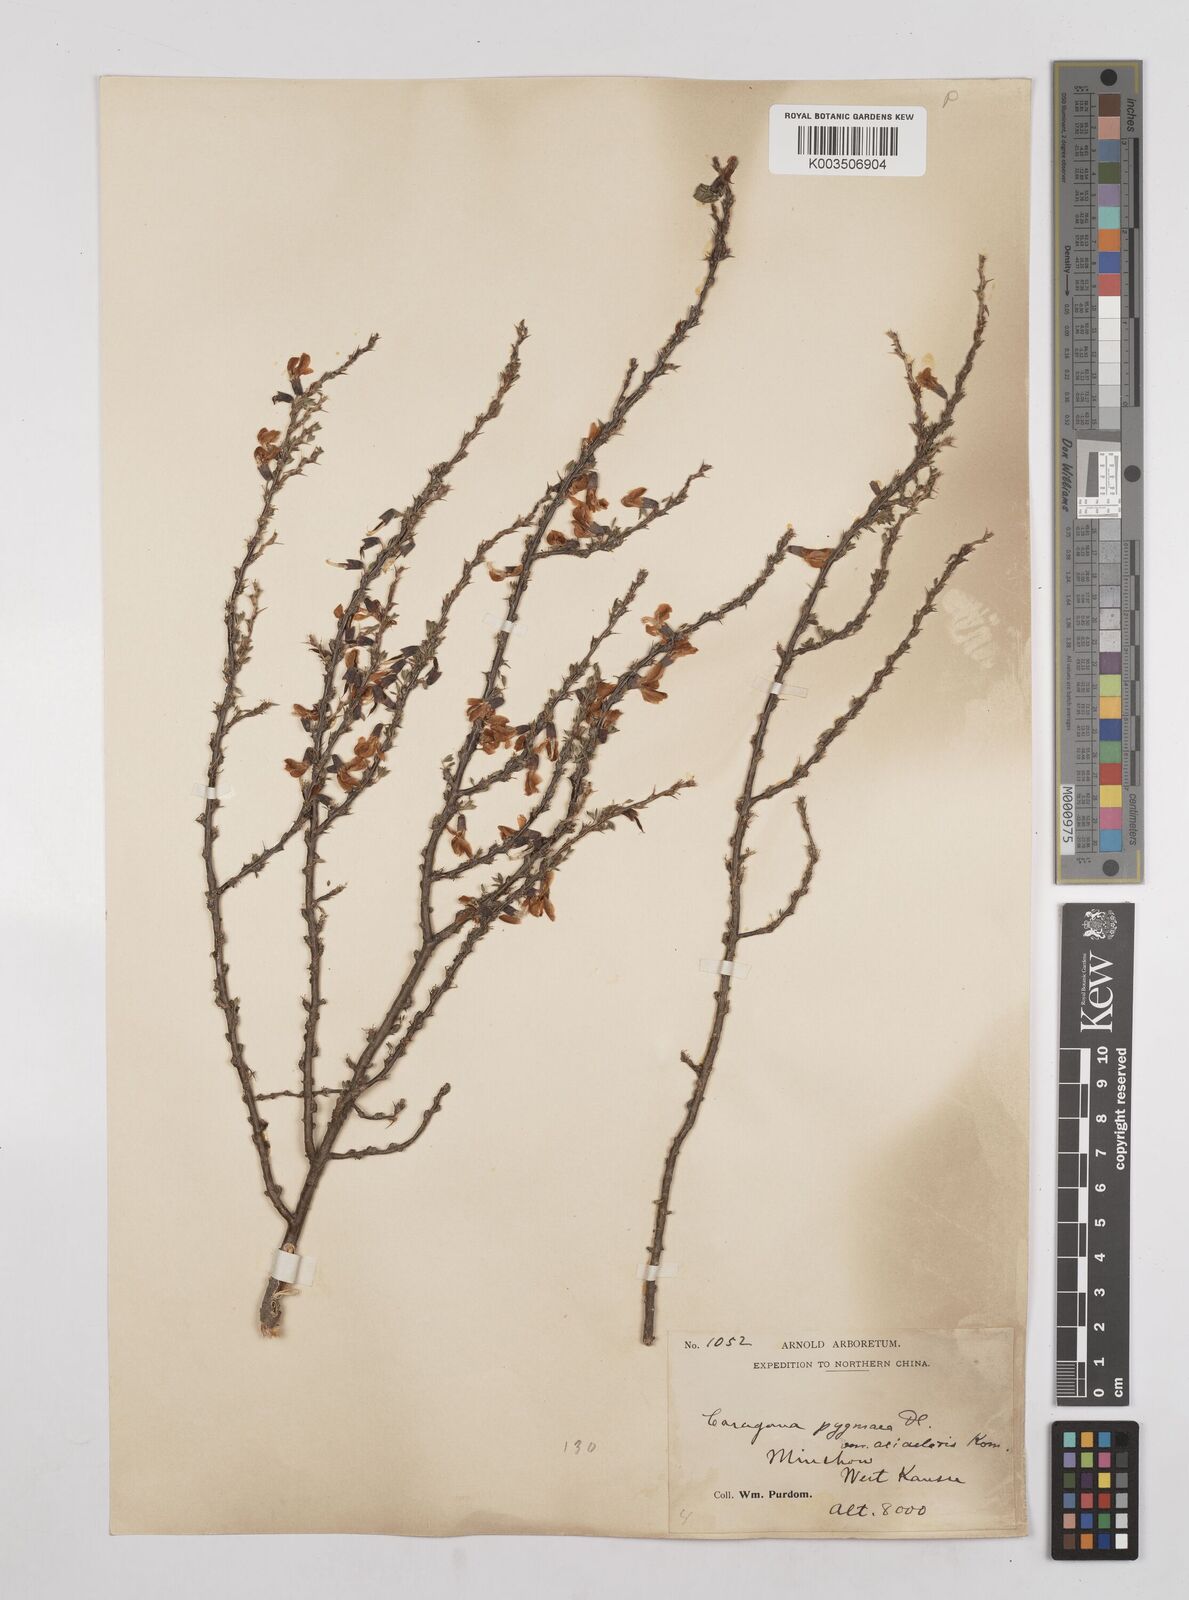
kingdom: Plantae
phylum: Tracheophyta
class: Magnoliopsida
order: Fabales
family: Fabaceae
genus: Caragana
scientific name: Caragana pygmaea
